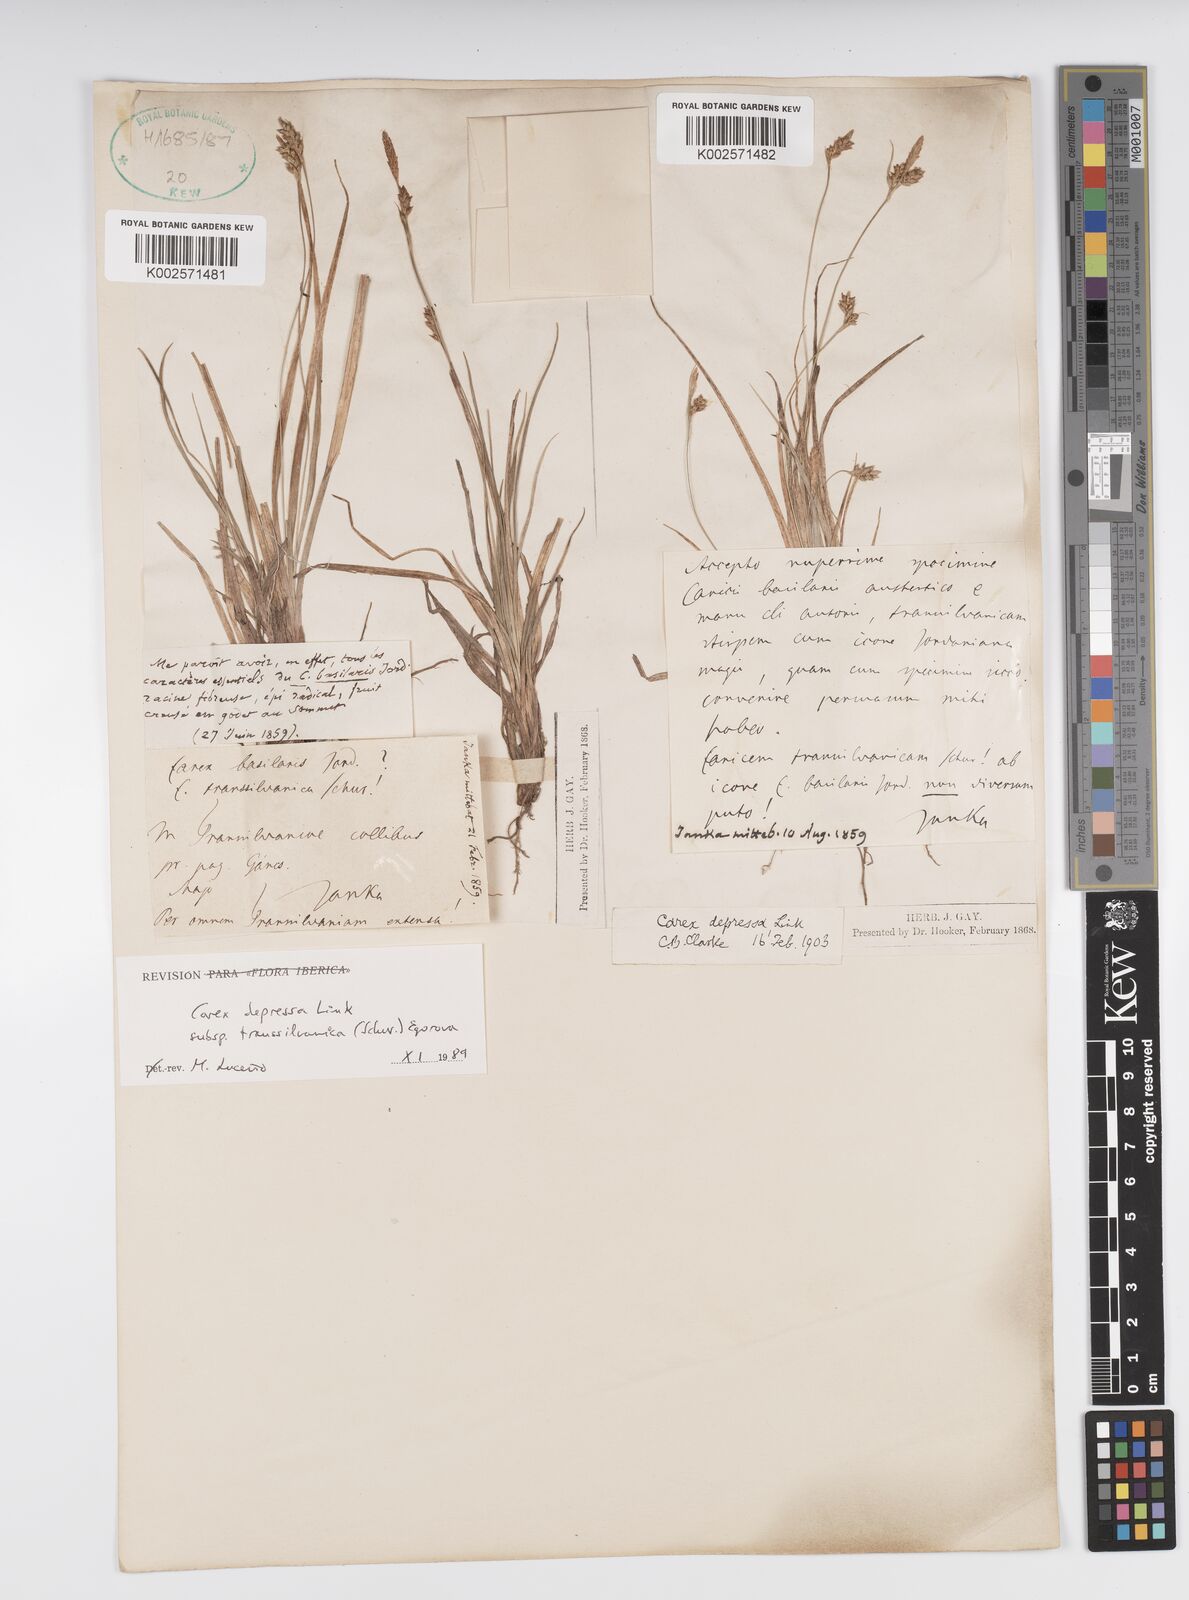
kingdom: Plantae
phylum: Tracheophyta
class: Liliopsida
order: Poales
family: Cyperaceae
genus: Carex
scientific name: Carex depressa
